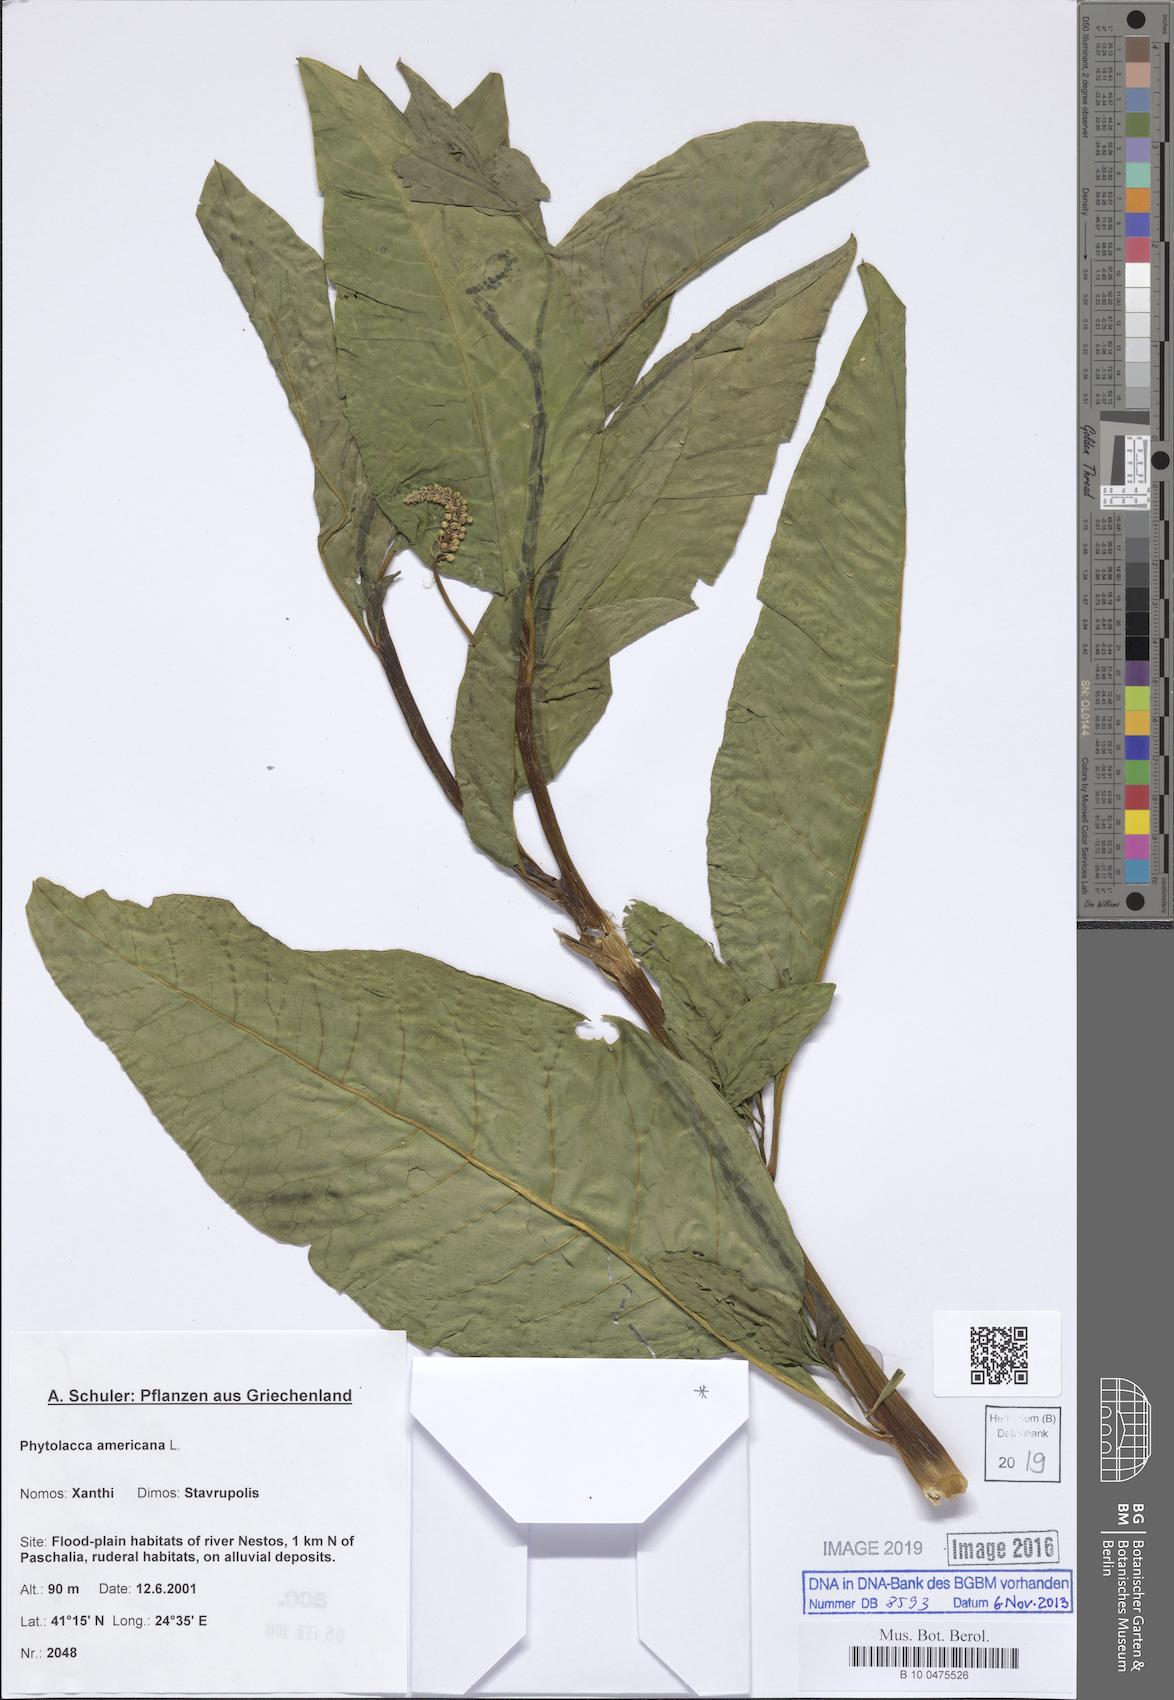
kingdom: Plantae
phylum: Tracheophyta
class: Magnoliopsida
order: Caryophyllales
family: Phytolaccaceae
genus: Phytolacca
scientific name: Phytolacca americana
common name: American pokeweed
